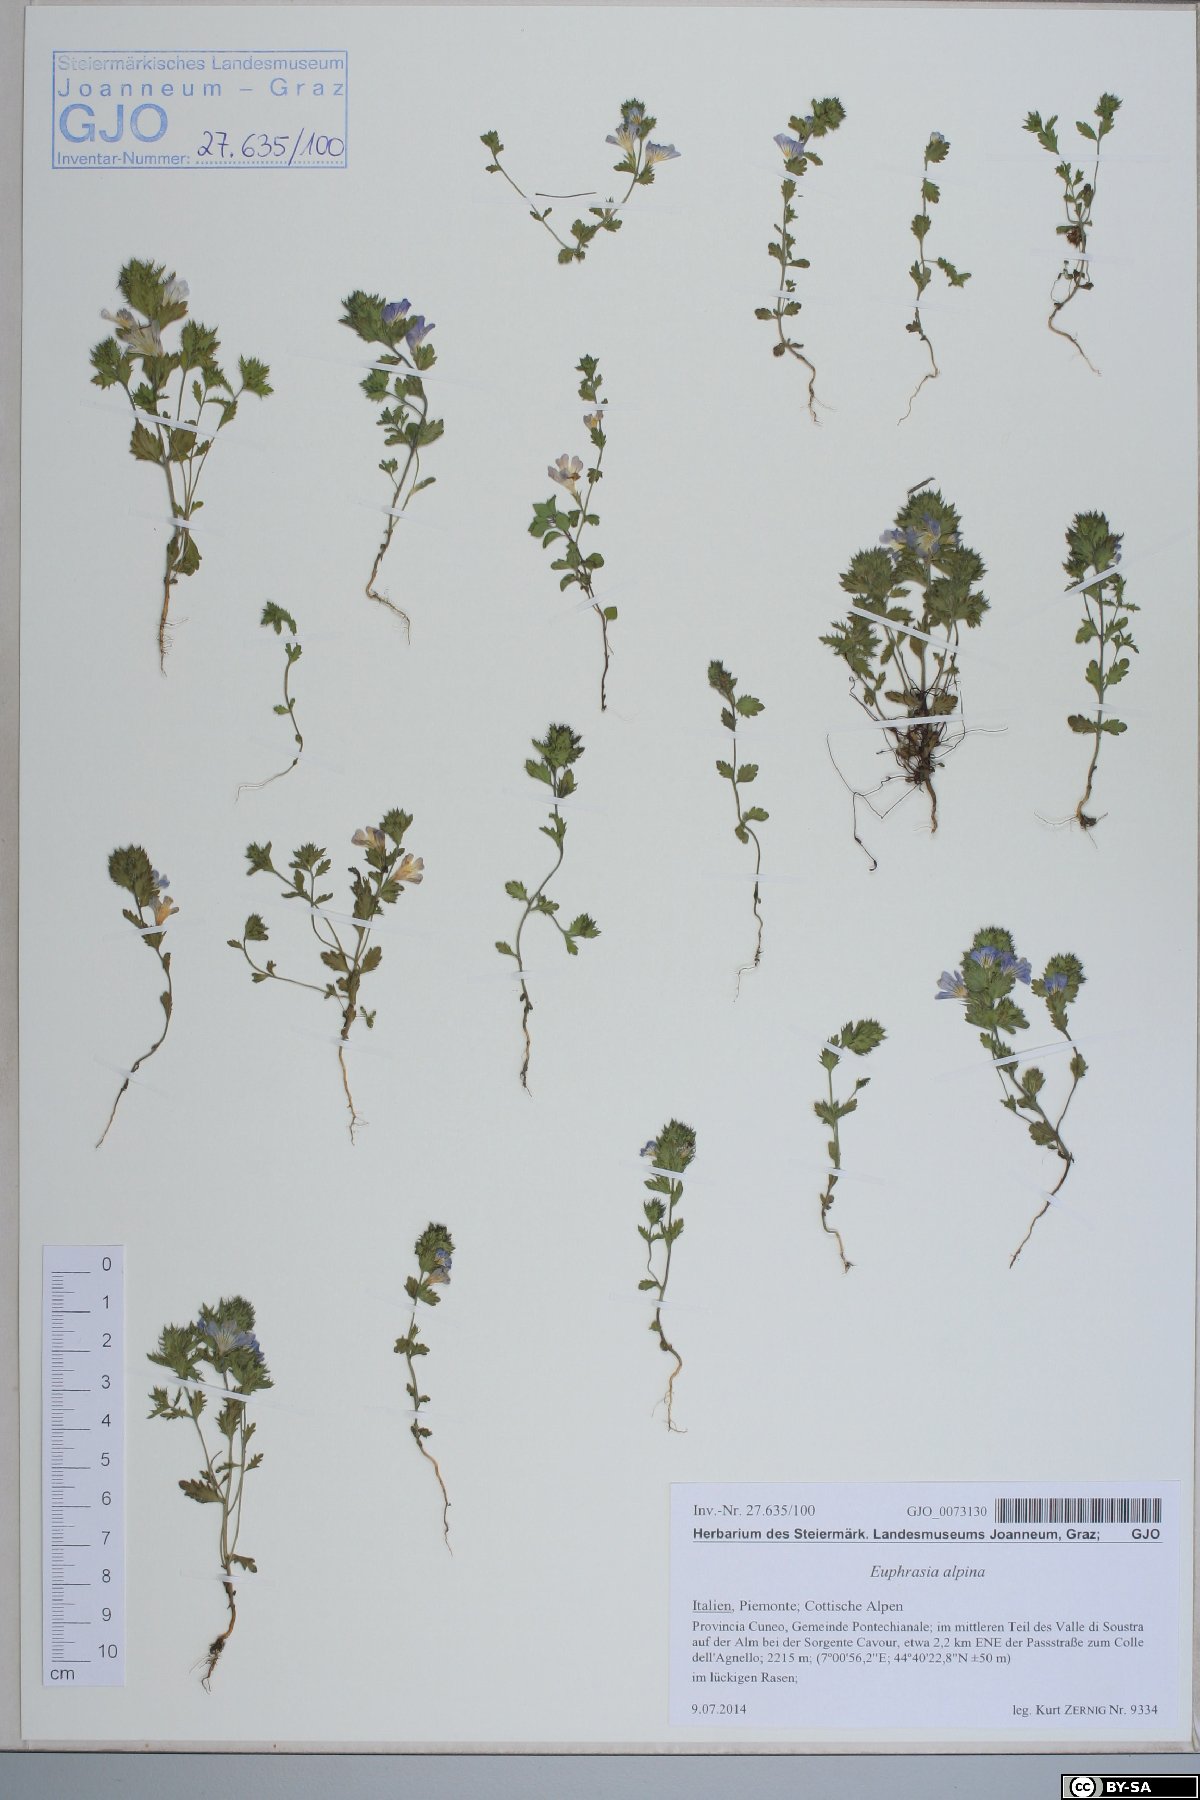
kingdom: Plantae
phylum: Tracheophyta
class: Magnoliopsida
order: Lamiales
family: Orobanchaceae
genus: Euphrasia
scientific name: Euphrasia alpina
